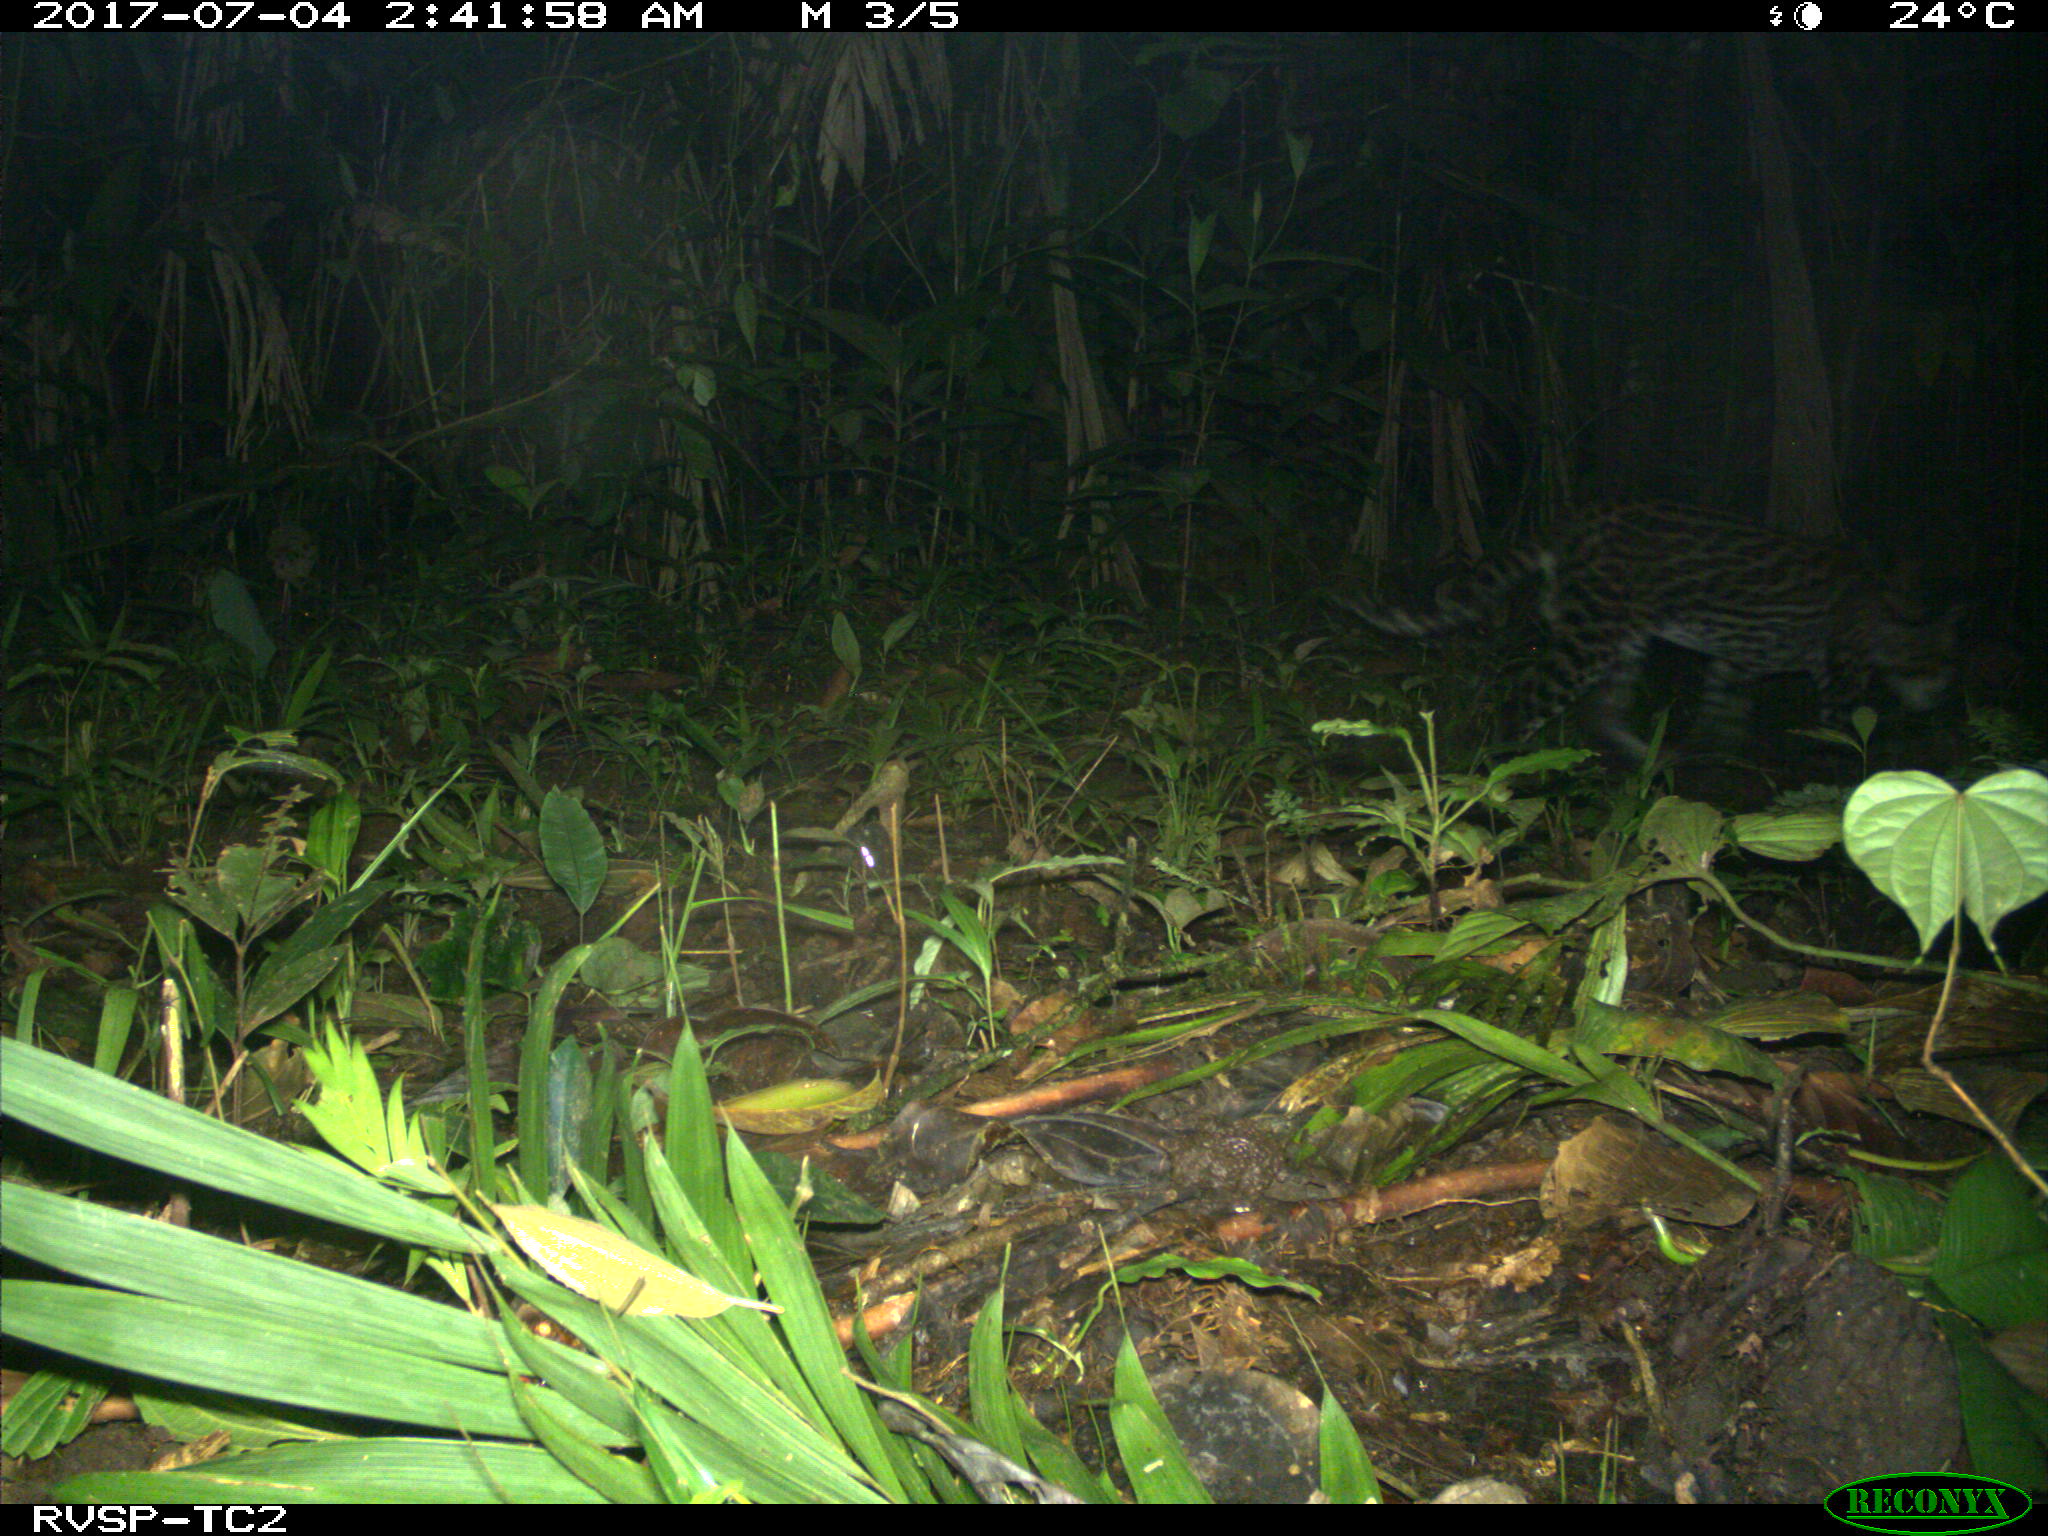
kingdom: Animalia
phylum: Chordata
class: Mammalia
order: Carnivora
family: Felidae
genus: Leopardus
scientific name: Leopardus pardalis
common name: Ocelot
